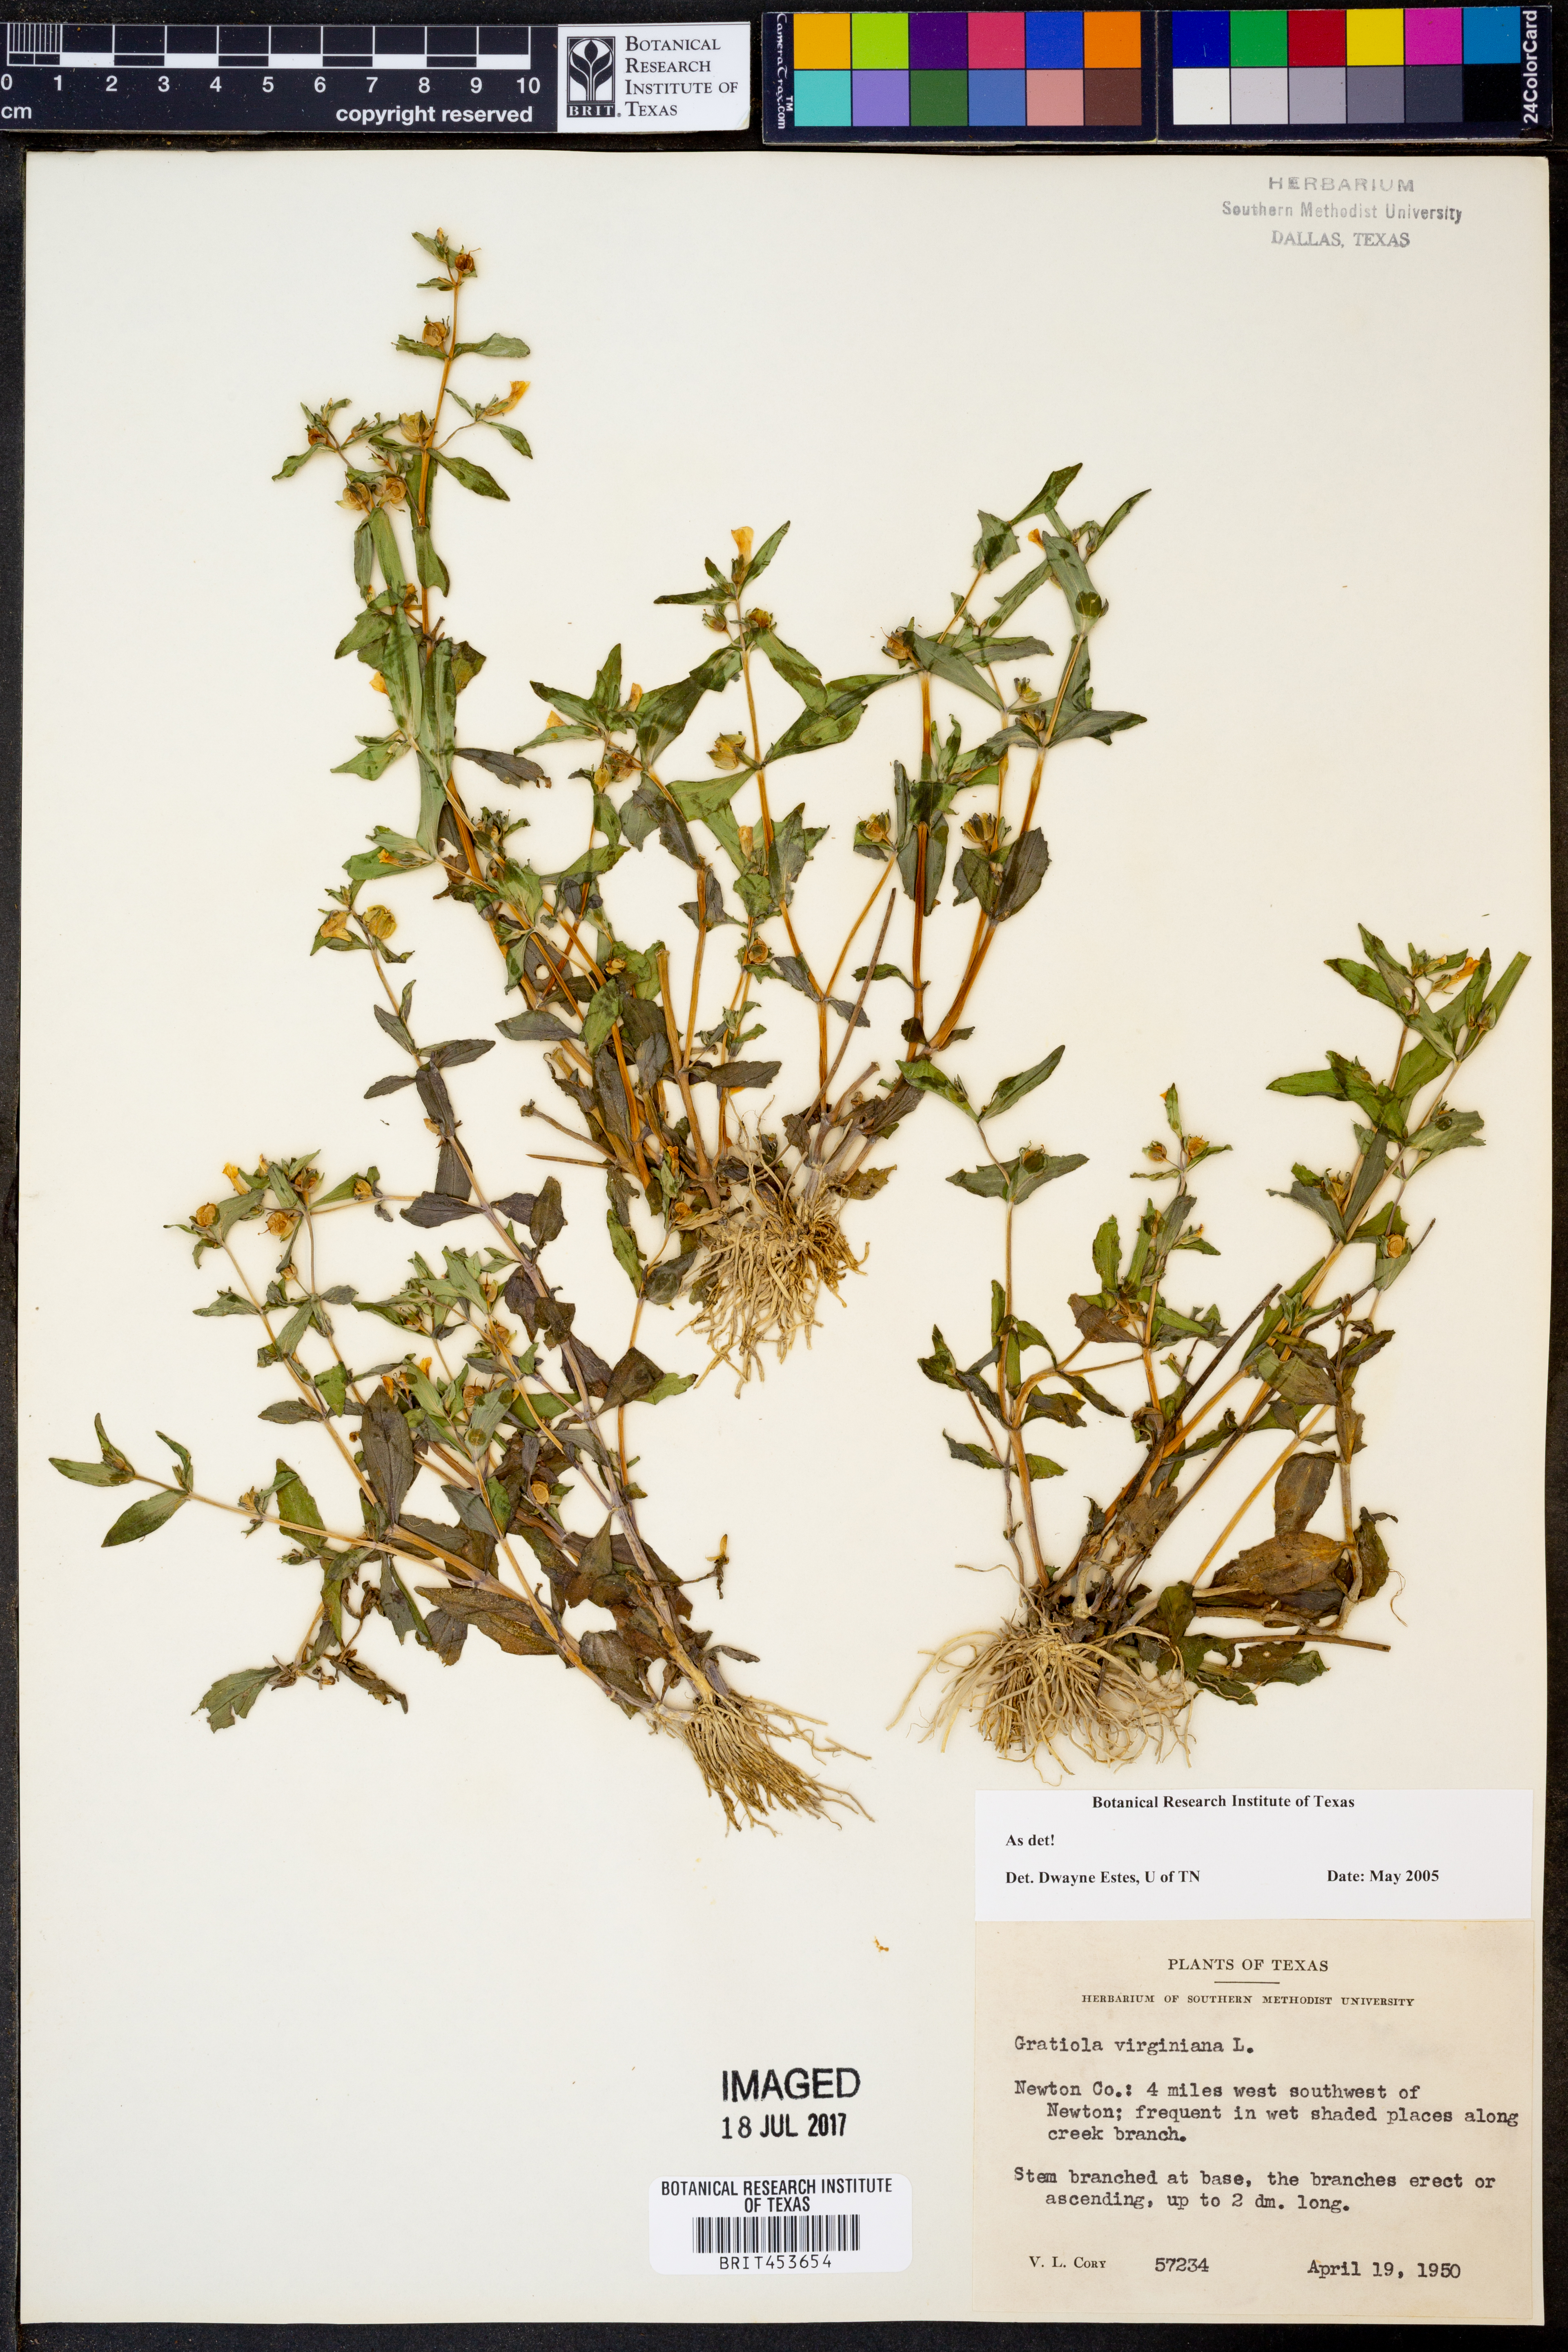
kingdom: Plantae
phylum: Tracheophyta
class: Magnoliopsida
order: Lamiales
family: Plantaginaceae
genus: Gratiola
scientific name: Gratiola virginiana
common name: Roundfruit hedgehyssop
